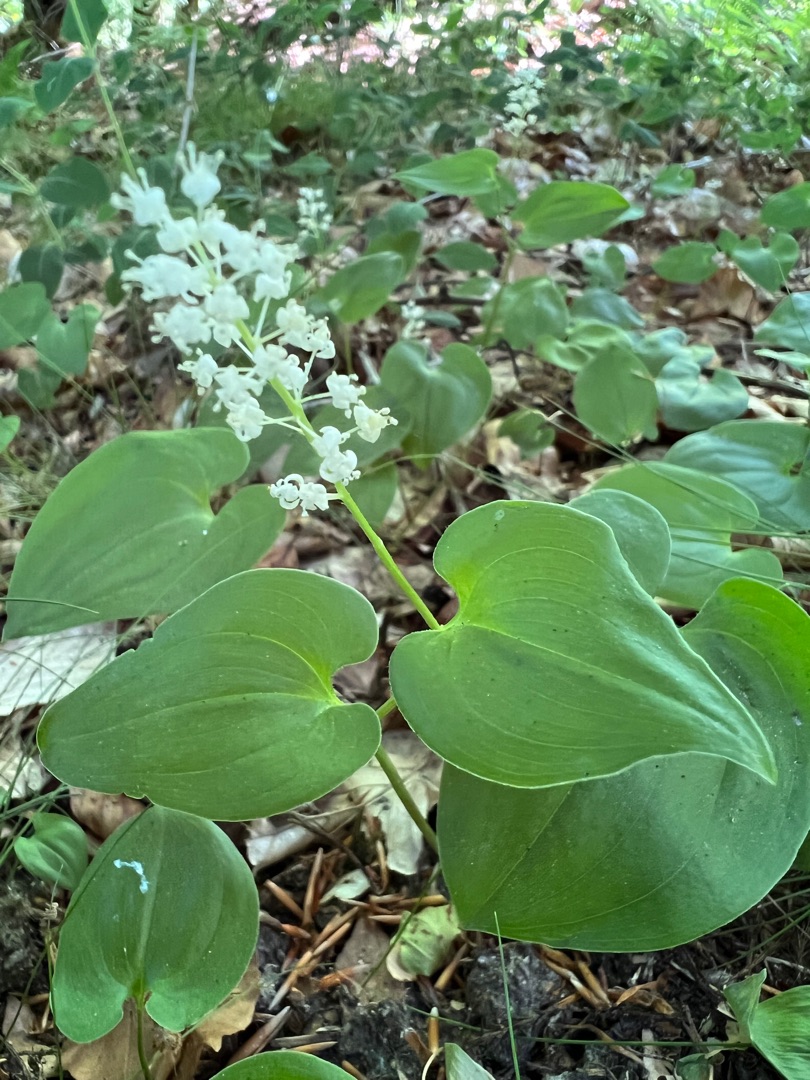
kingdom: Plantae
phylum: Tracheophyta
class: Liliopsida
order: Asparagales
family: Asparagaceae
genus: Maianthemum
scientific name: Maianthemum bifolium
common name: Majblomst
